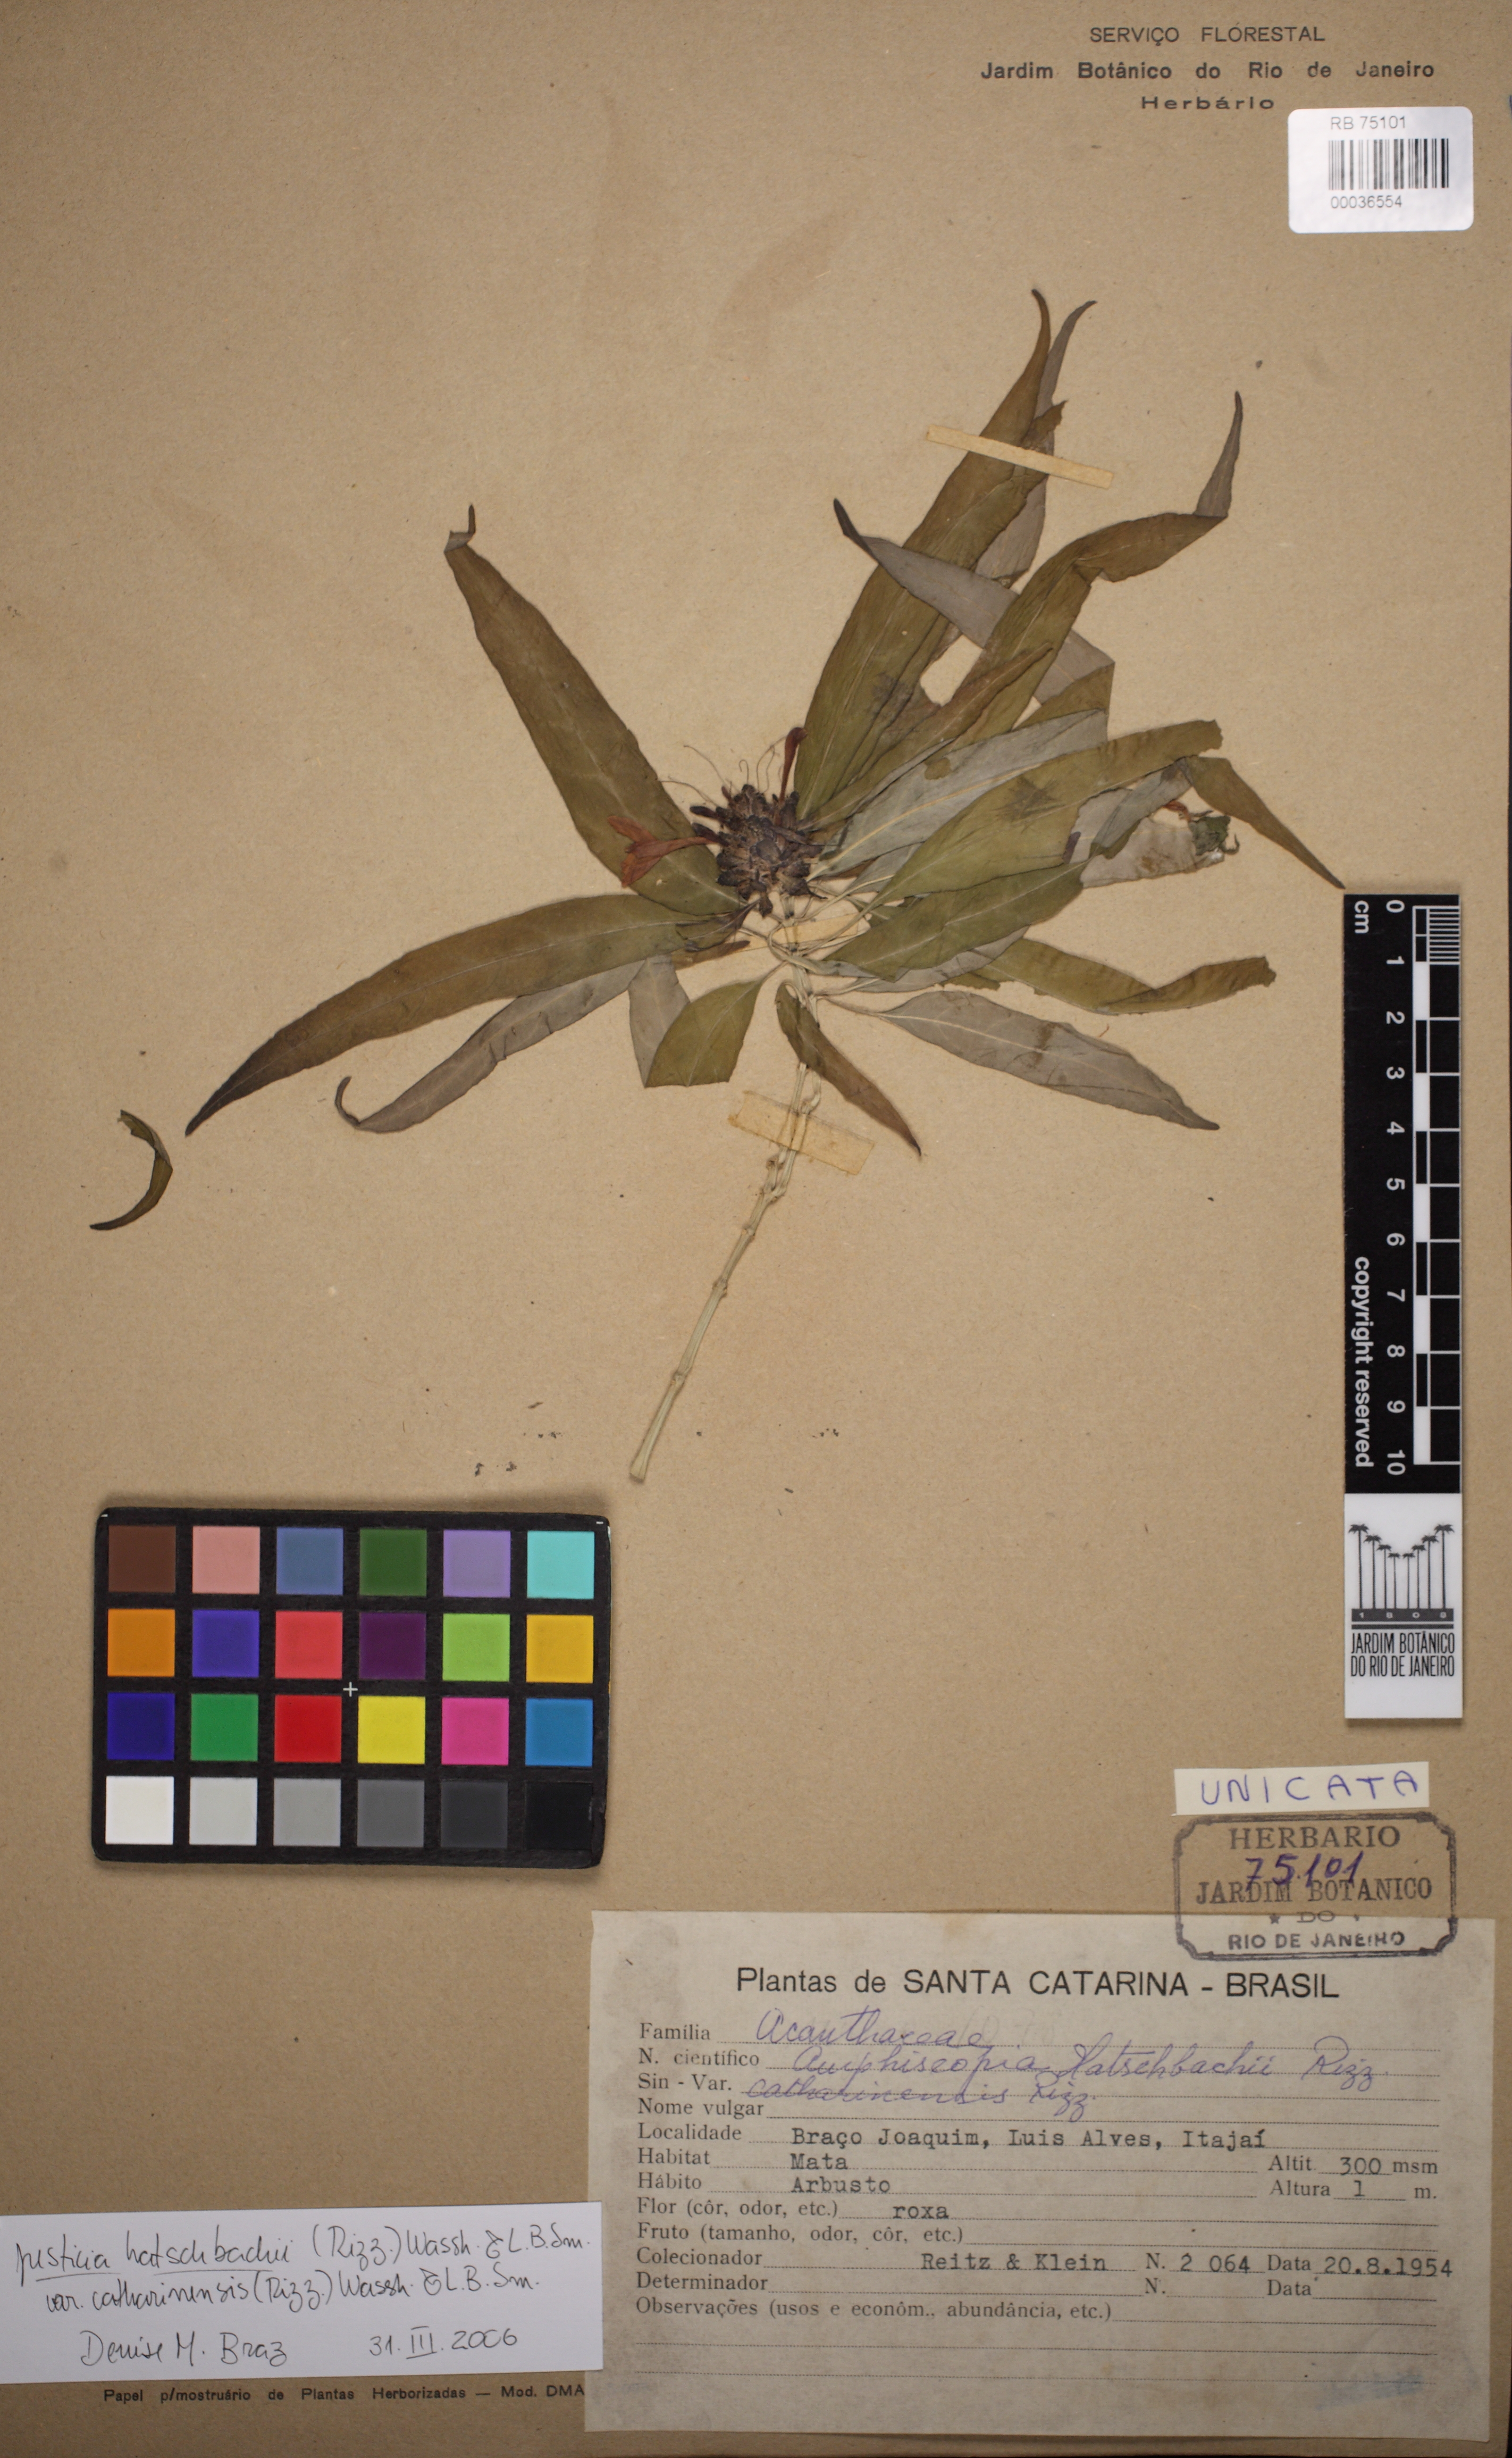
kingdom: Plantae
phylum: Tracheophyta
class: Magnoliopsida
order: Lamiales
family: Acanthaceae
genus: Justicia
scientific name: Justicia hatschbachii
